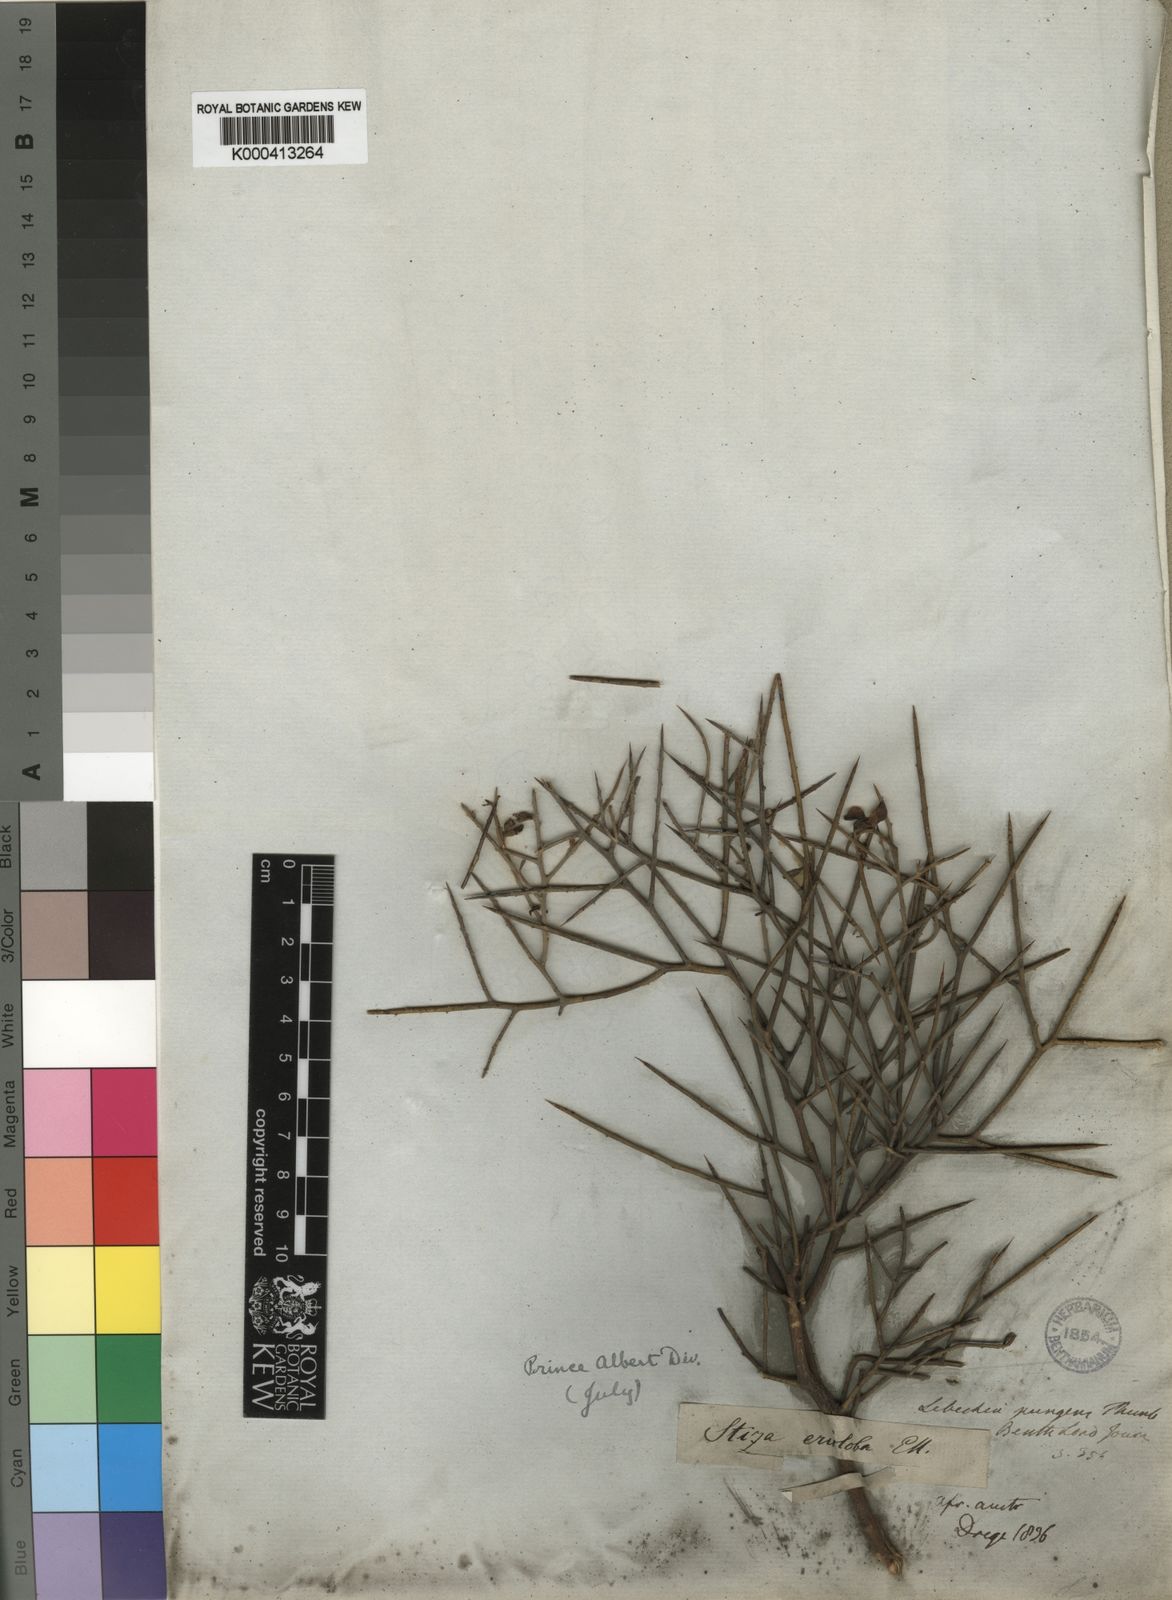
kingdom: Plantae
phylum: Tracheophyta
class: Magnoliopsida
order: Fabales
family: Fabaceae
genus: Calobota
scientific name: Calobota pungens
